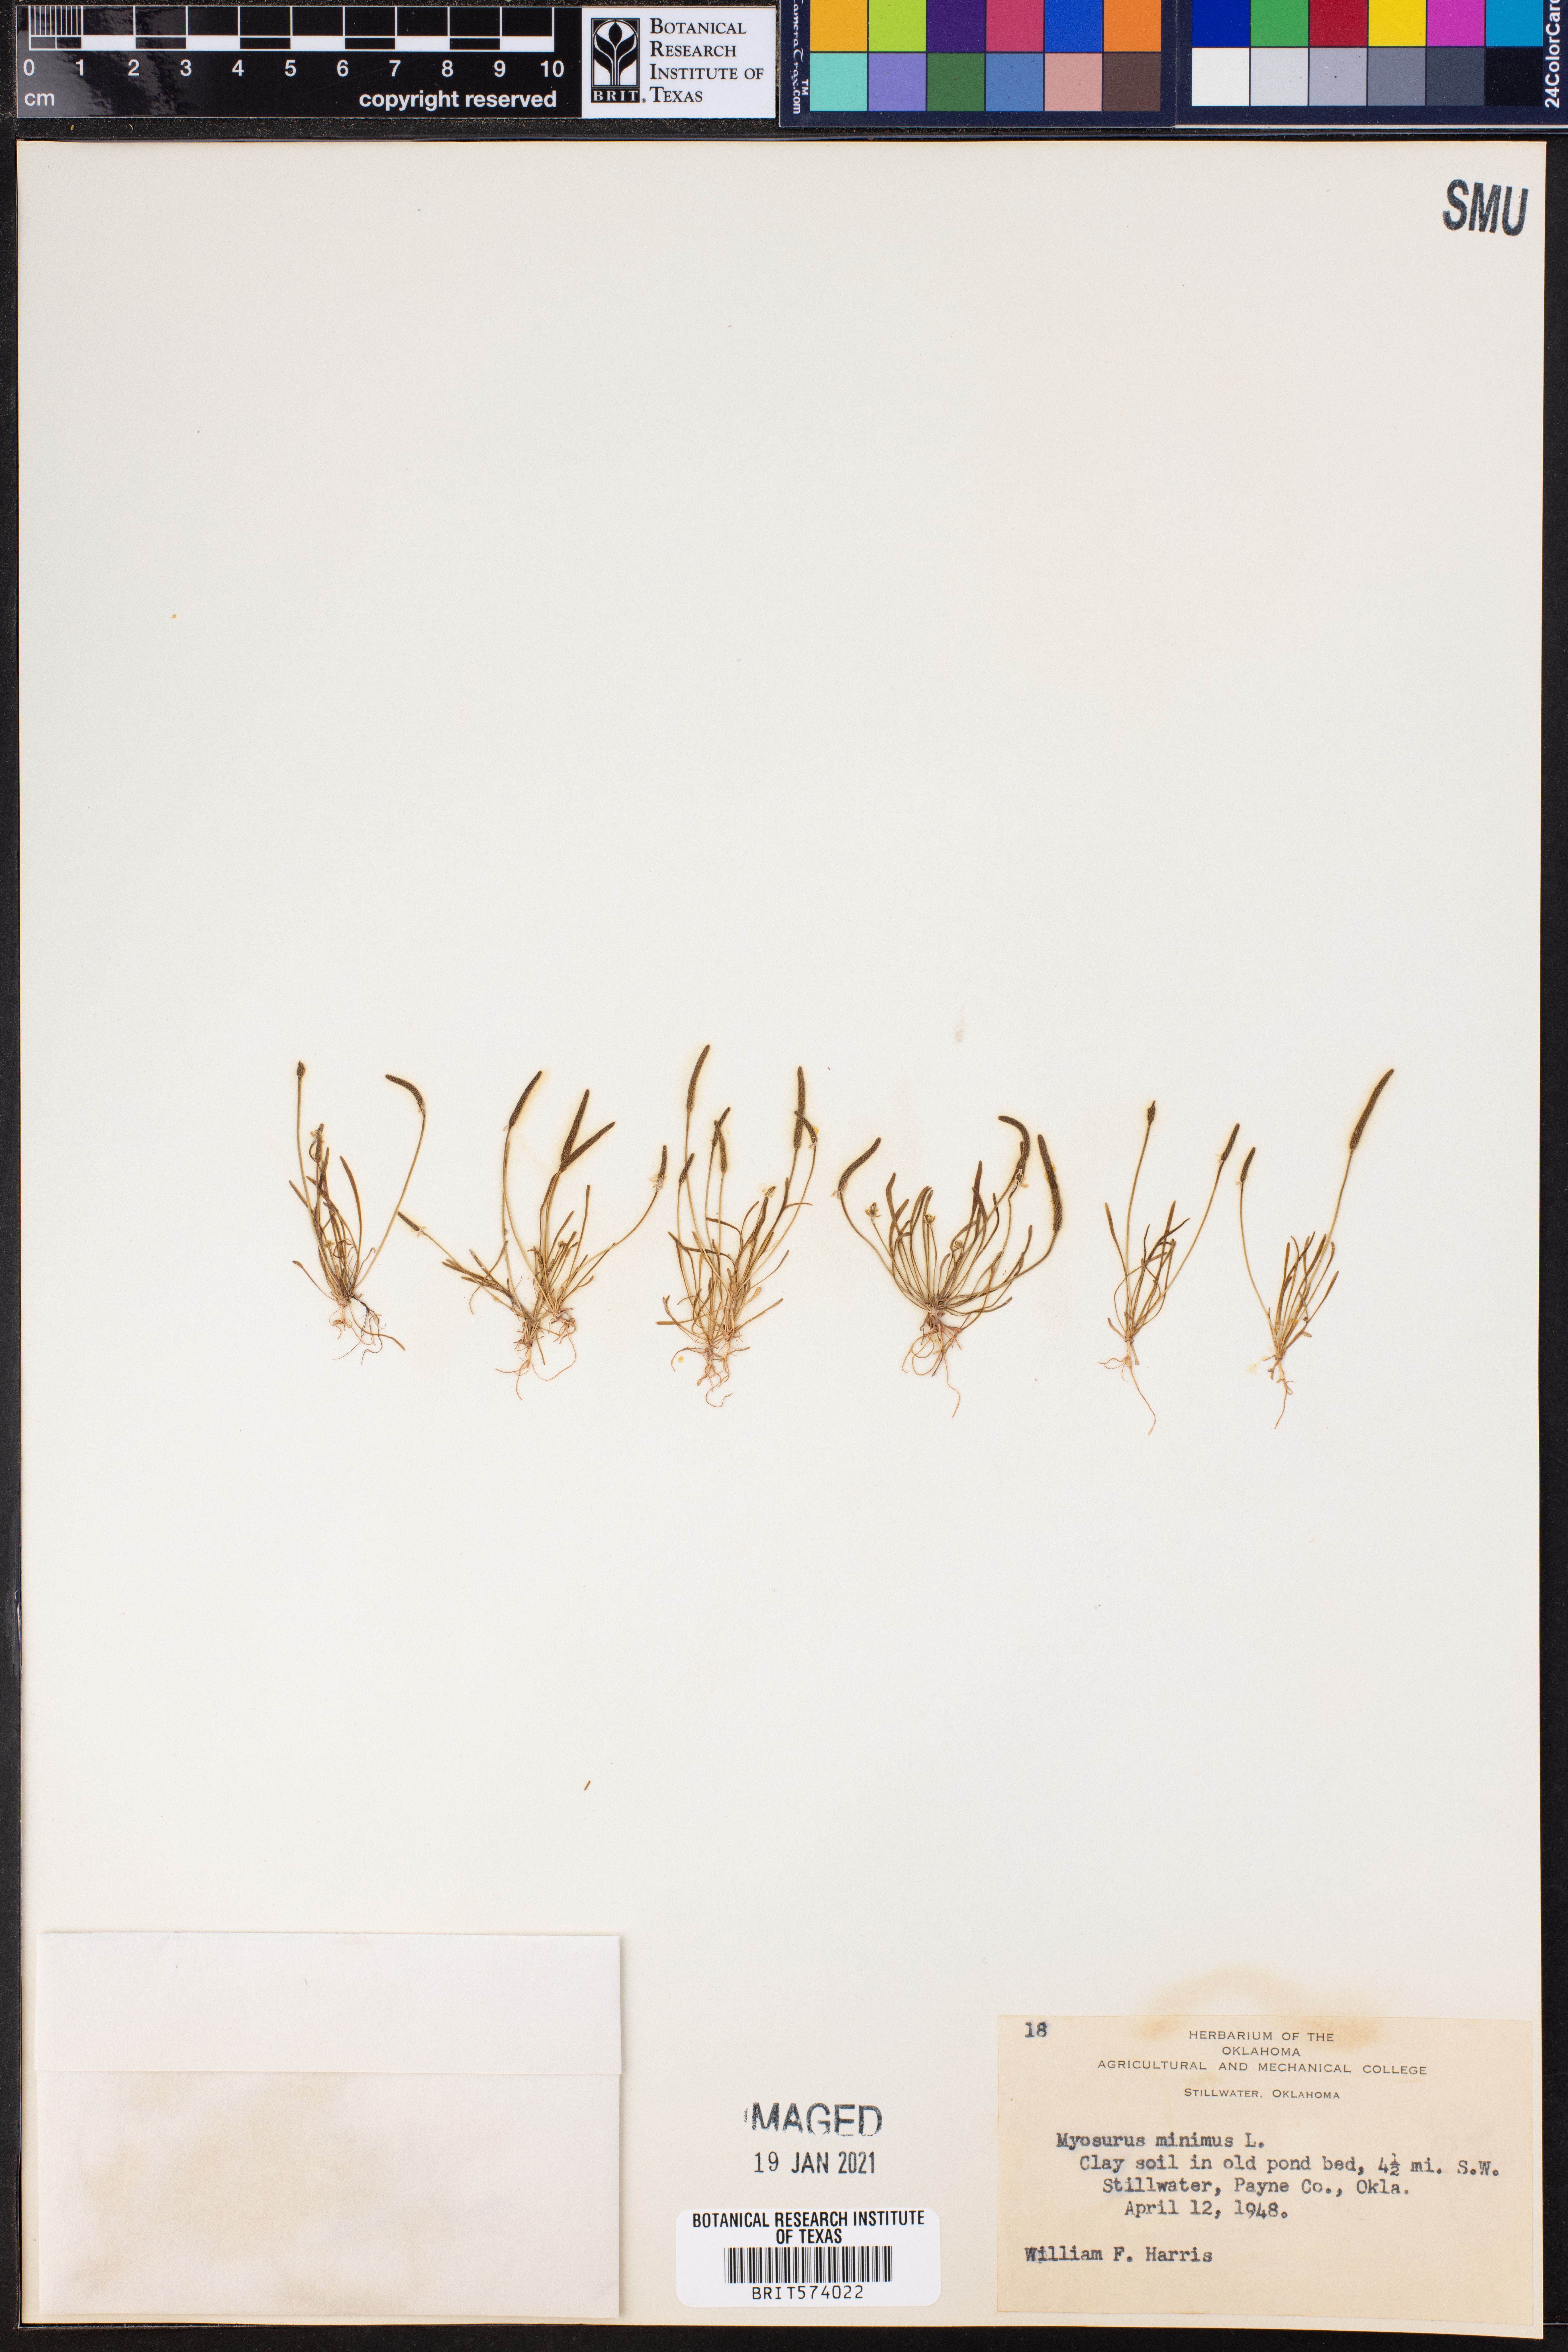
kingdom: Plantae
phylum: Tracheophyta
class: Magnoliopsida
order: Ranunculales
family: Ranunculaceae
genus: Myosurus
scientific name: Myosurus minimus
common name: Mousetail
